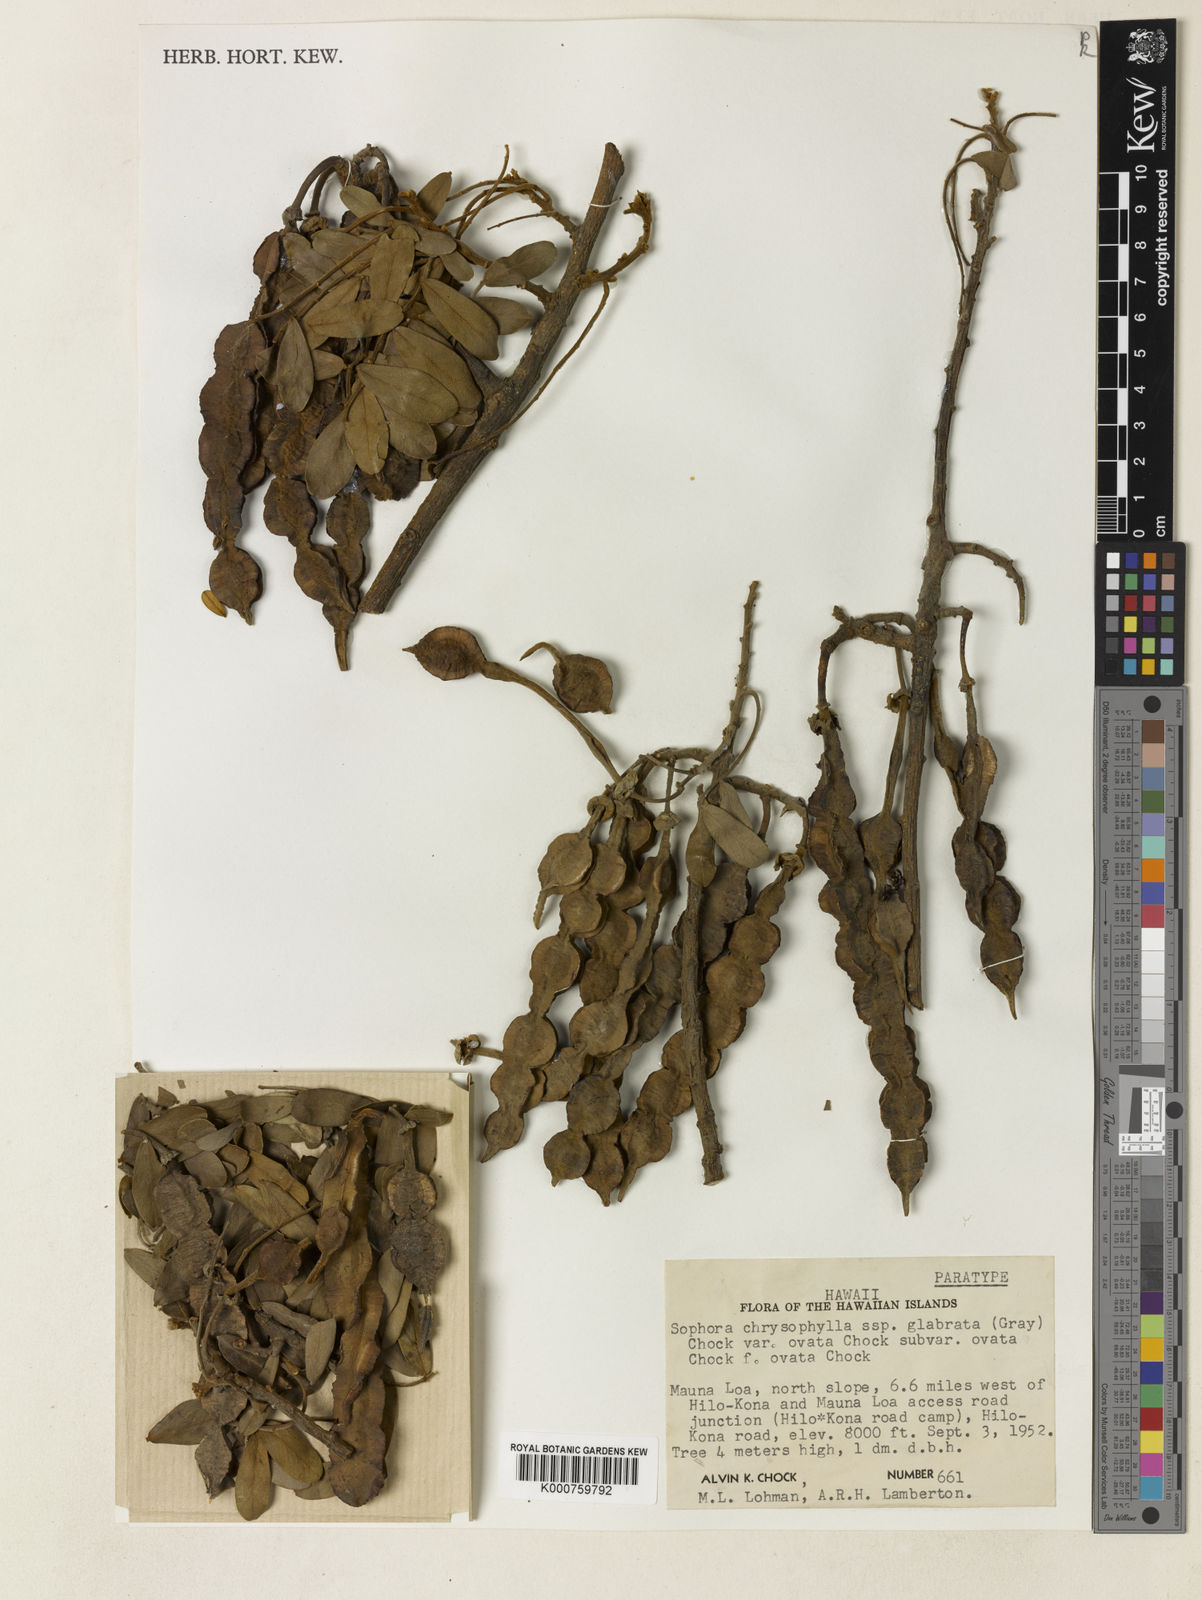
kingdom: Plantae
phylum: Tracheophyta
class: Magnoliopsida
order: Fabales
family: Fabaceae
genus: Sophora
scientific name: Sophora chrysophylla
